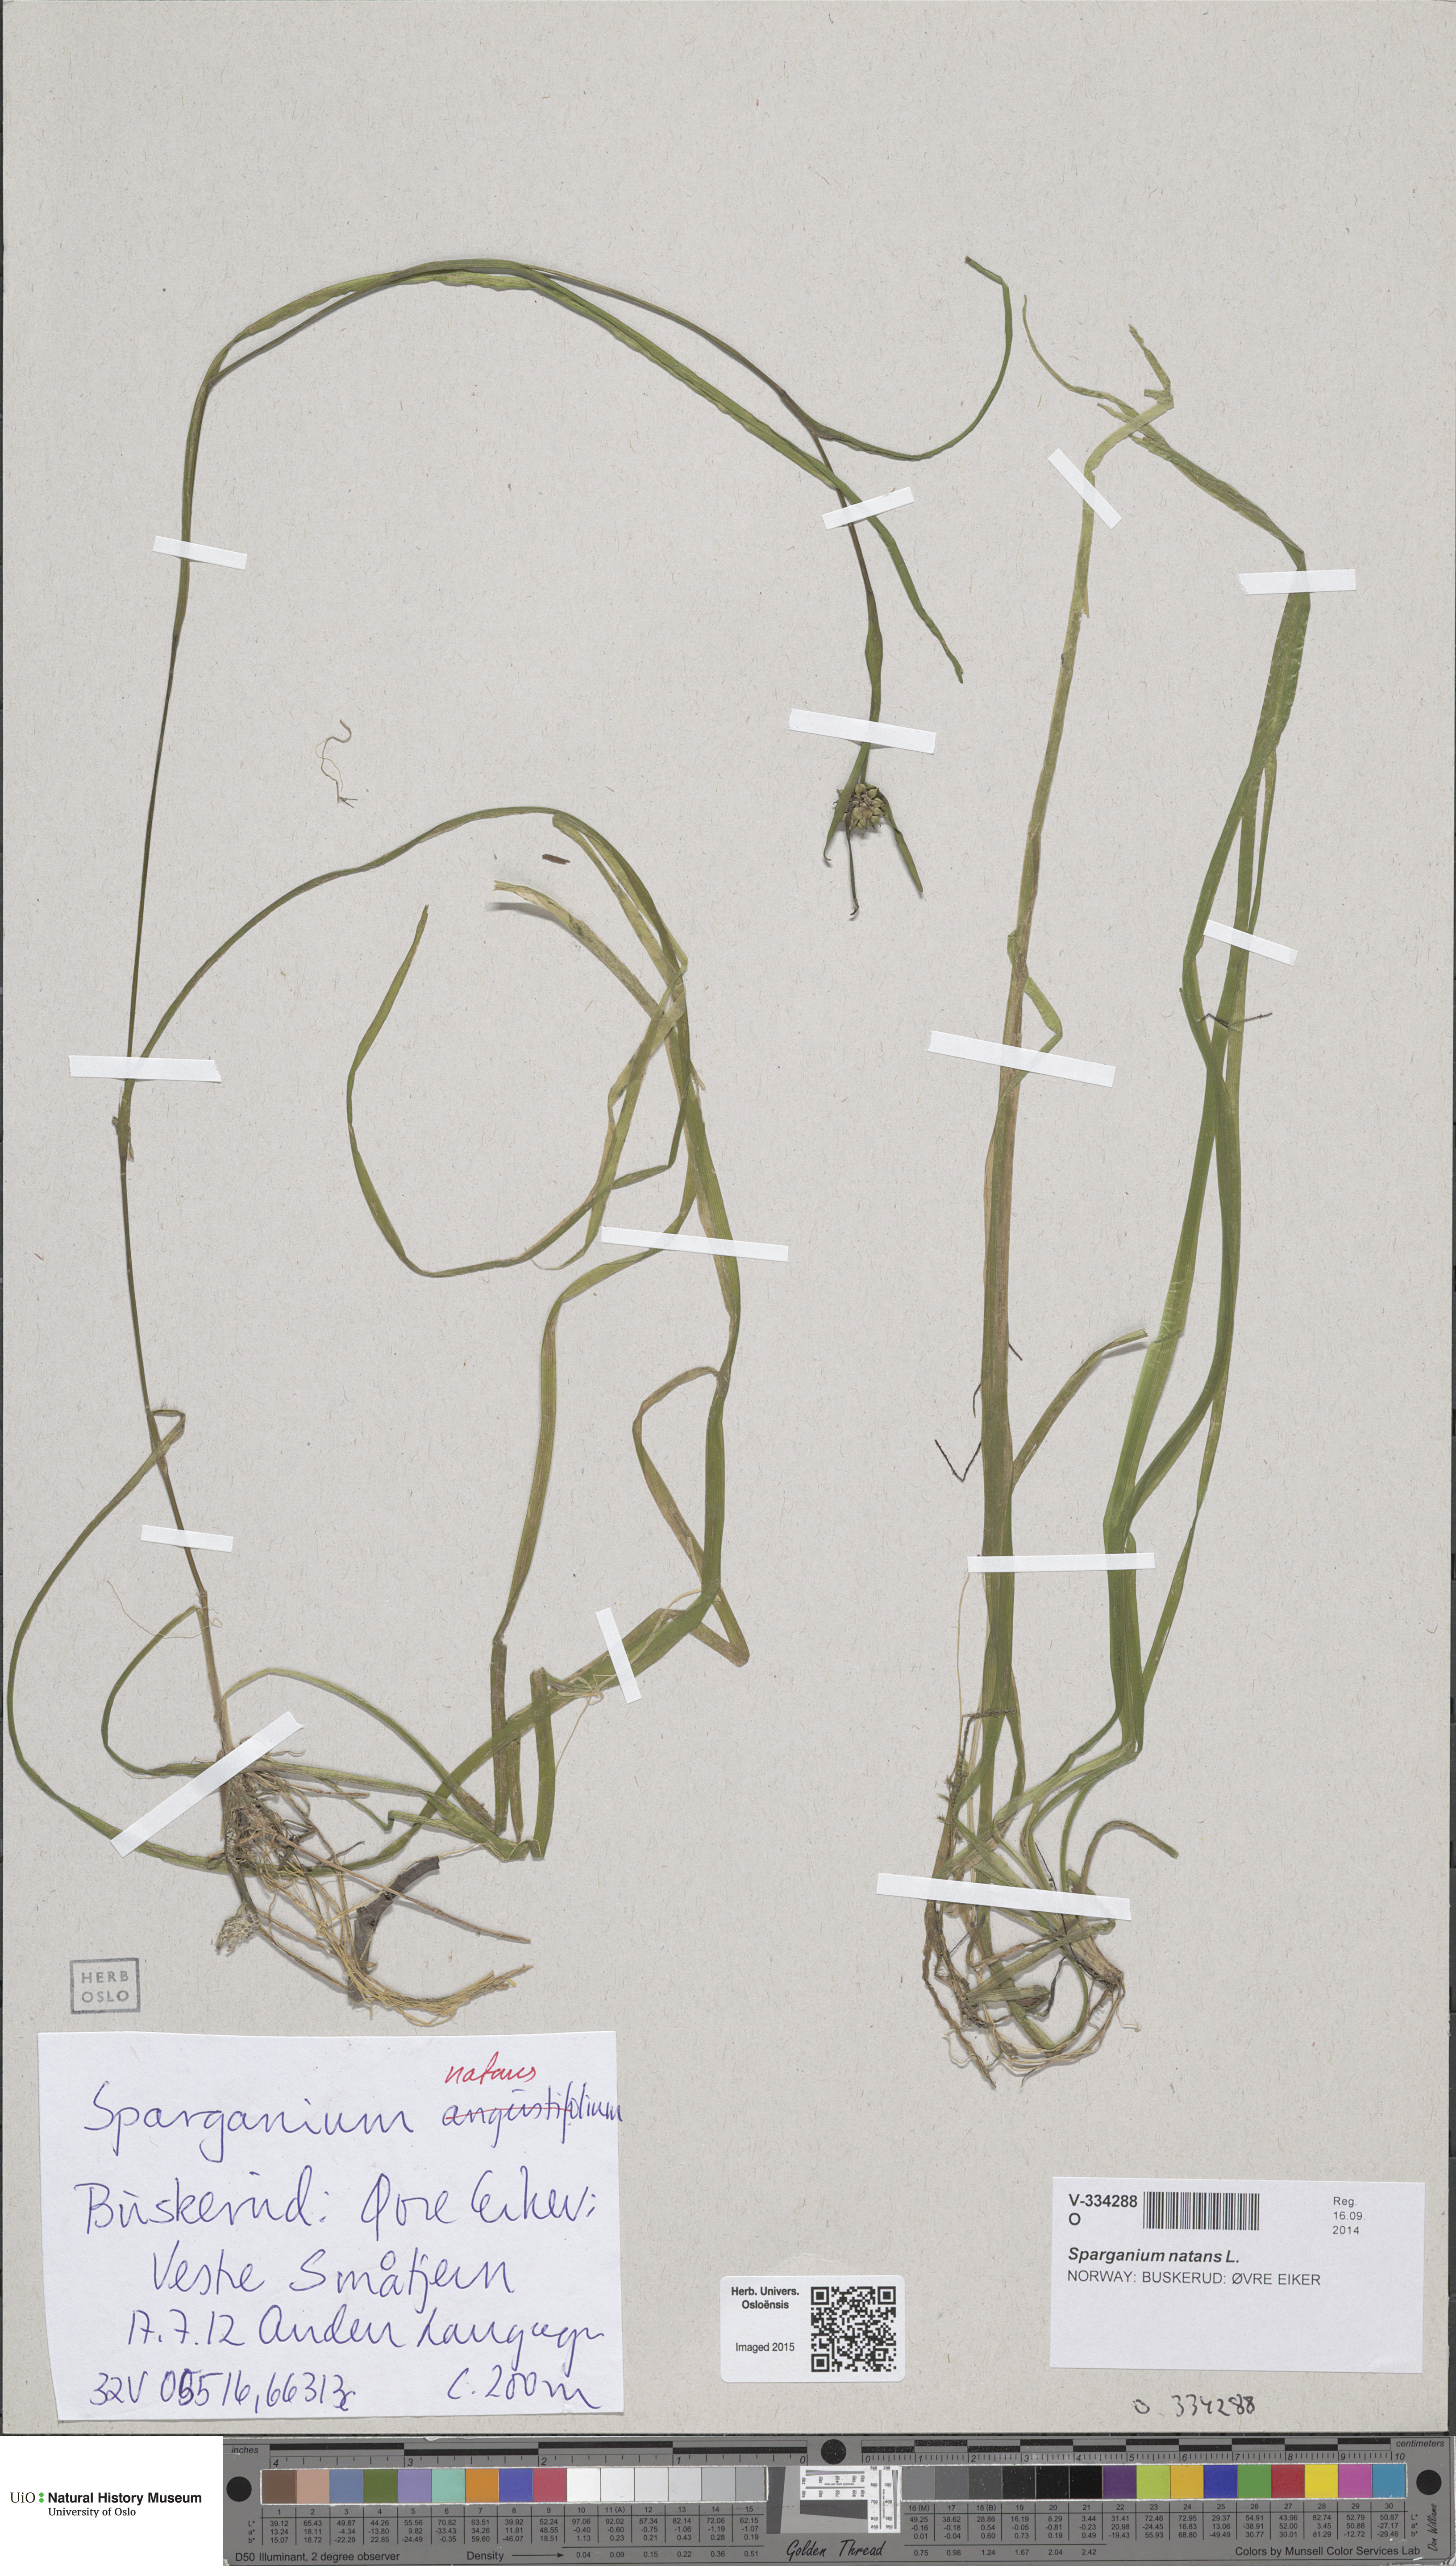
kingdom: Plantae
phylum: Tracheophyta
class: Liliopsida
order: Poales
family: Typhaceae
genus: Sparganium
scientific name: Sparganium natans
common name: Least bur-reed
